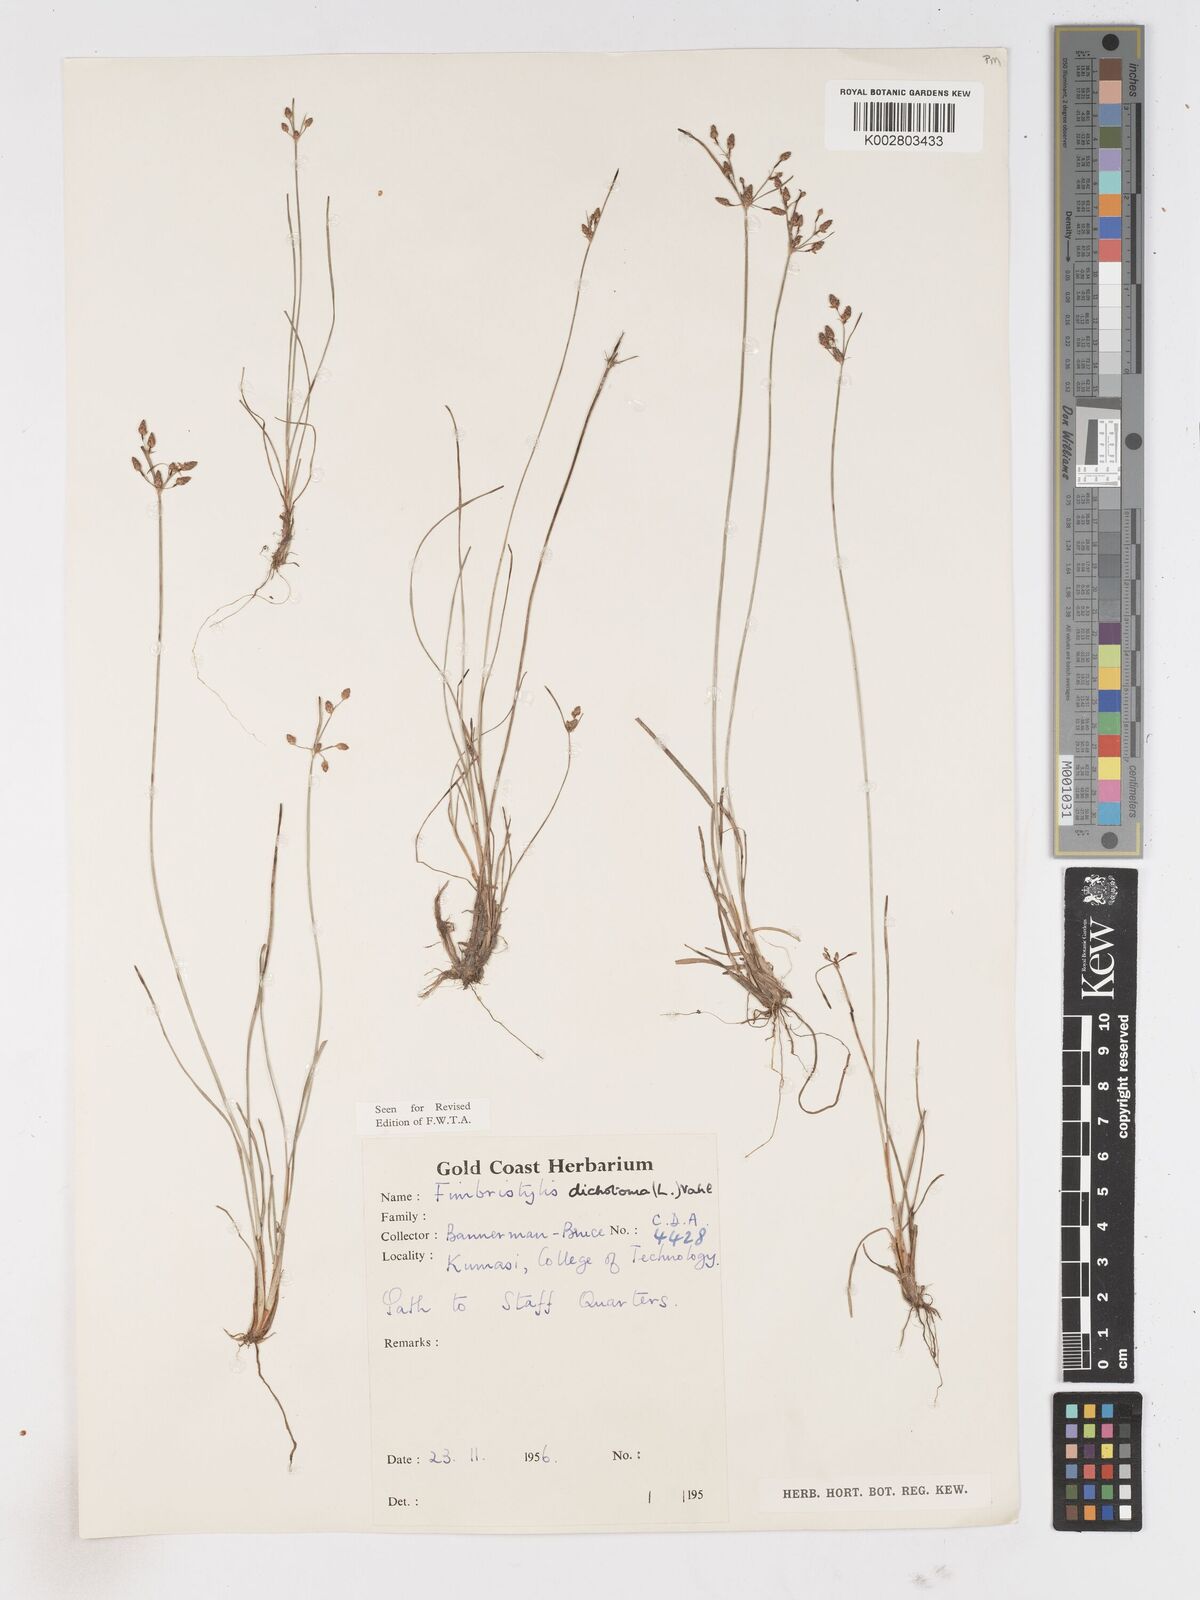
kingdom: Plantae
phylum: Tracheophyta
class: Liliopsida
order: Poales
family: Cyperaceae
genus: Fimbristylis
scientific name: Fimbristylis dichotoma
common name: Forked fimbry
